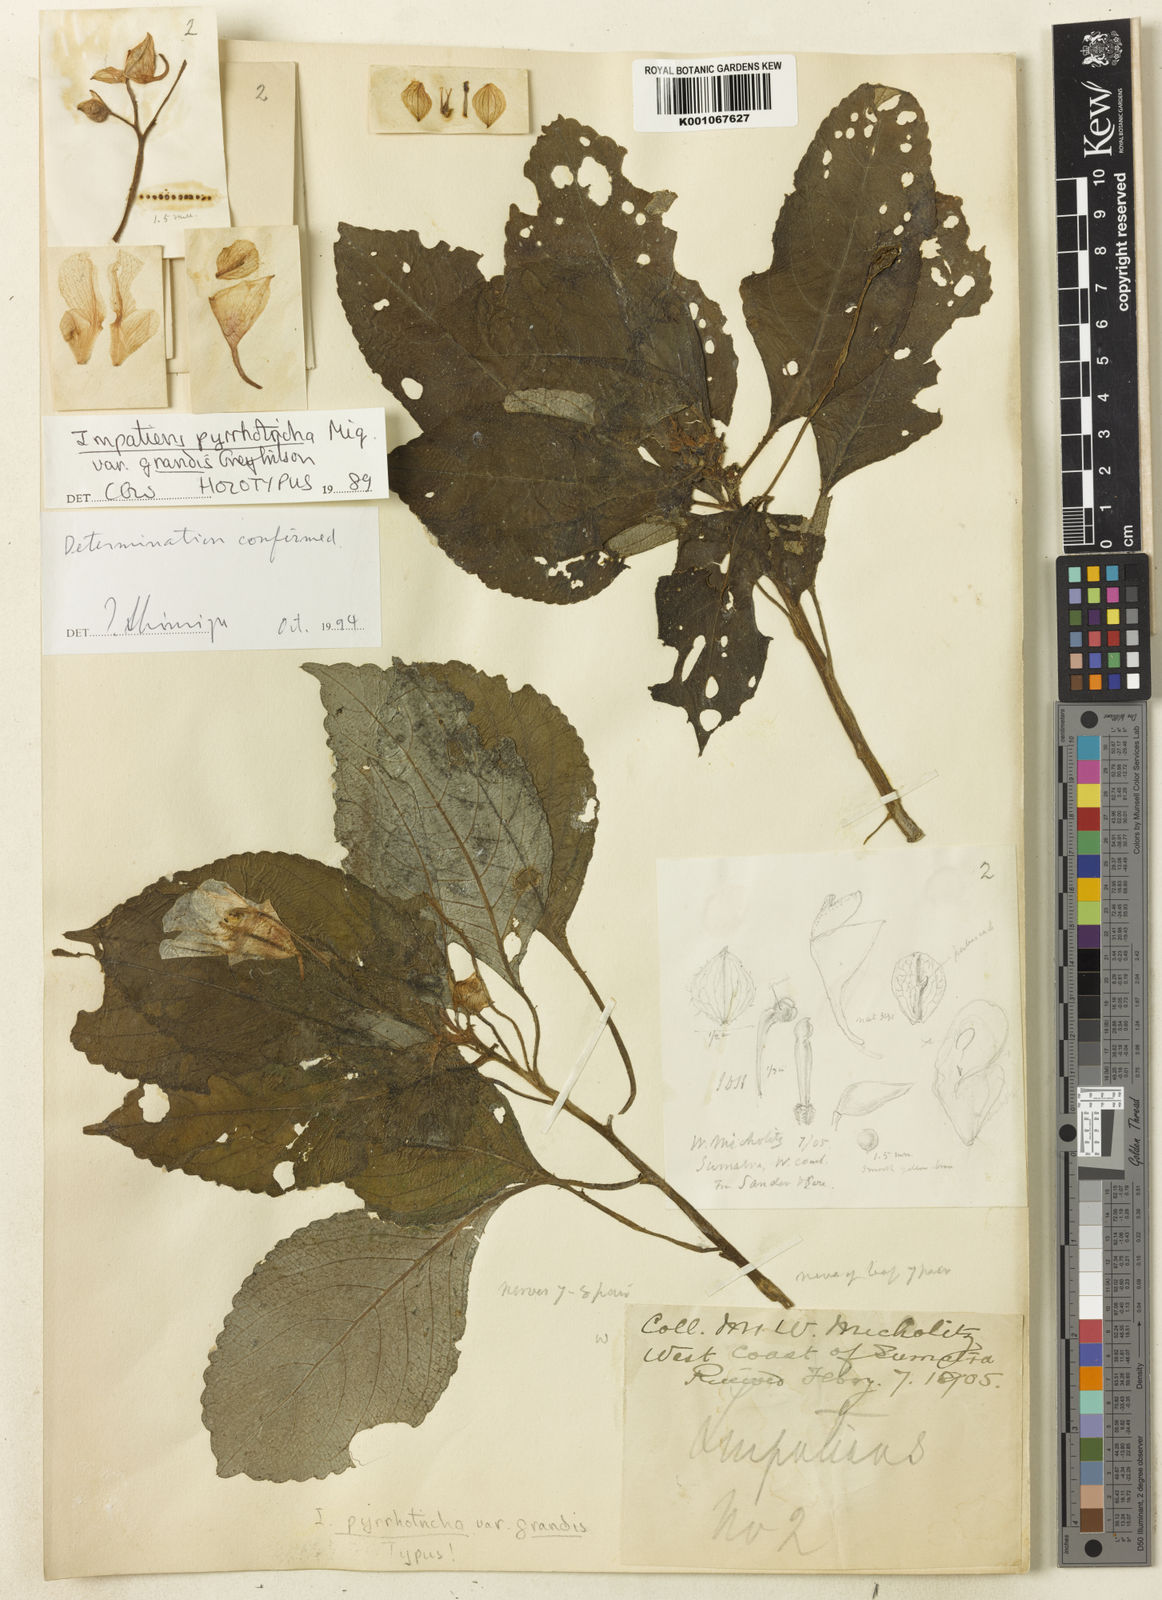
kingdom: Plantae
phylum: Tracheophyta
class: Magnoliopsida
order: Ericales
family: Balsaminaceae
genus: Impatiens
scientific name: Impatiens pyrrhotricha
